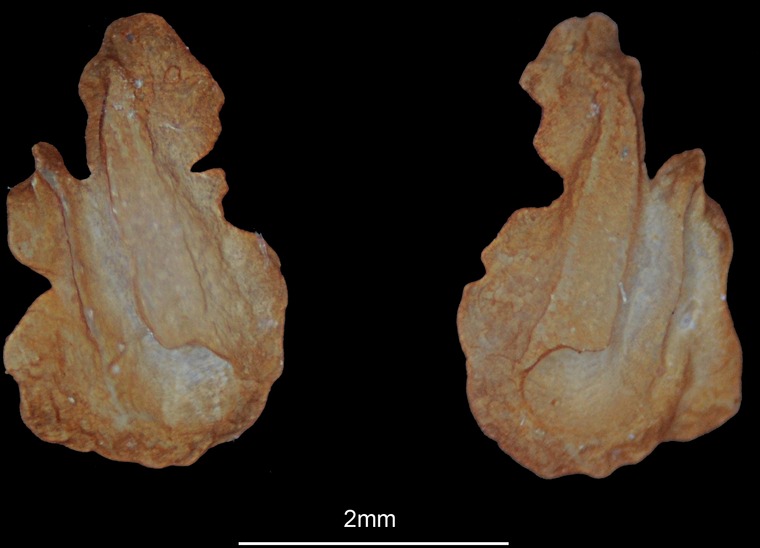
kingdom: Animalia
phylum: Chordata
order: Perciformes
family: Mullidae
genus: Parupeneus
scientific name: Parupeneus margaritatus
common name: Pearly goatfish
